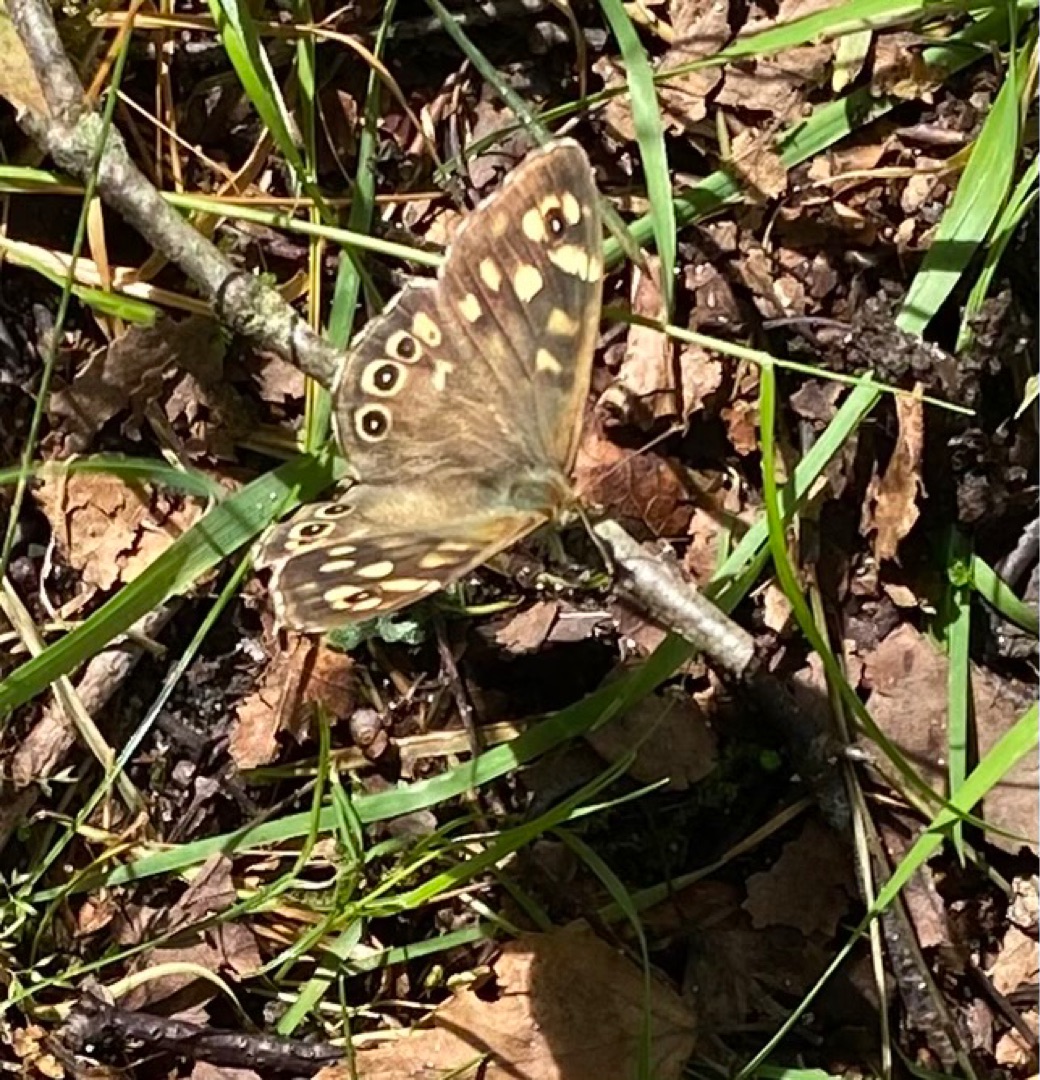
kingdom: Animalia
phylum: Arthropoda
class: Insecta
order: Lepidoptera
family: Nymphalidae
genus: Pararge
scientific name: Pararge aegeria
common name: Skovrandøje
